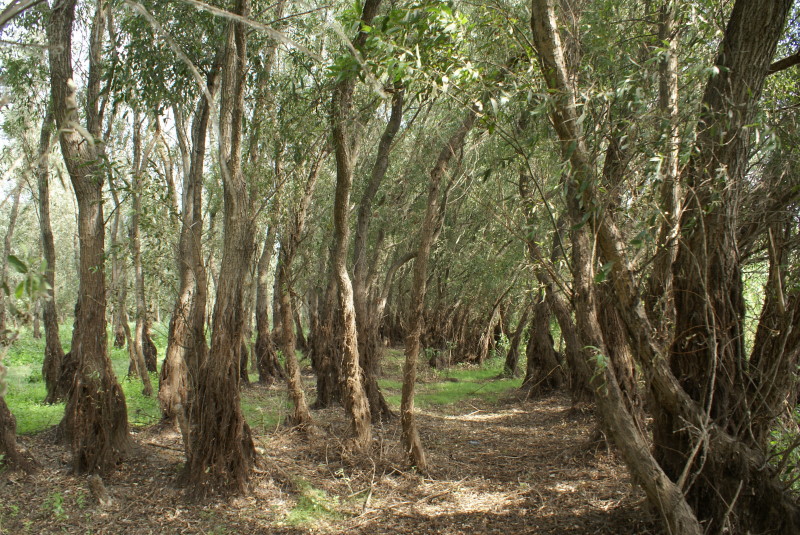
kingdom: Plantae
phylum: Tracheophyta
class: Magnoliopsida
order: Malpighiales
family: Salicaceae
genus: Salix
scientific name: Salix
